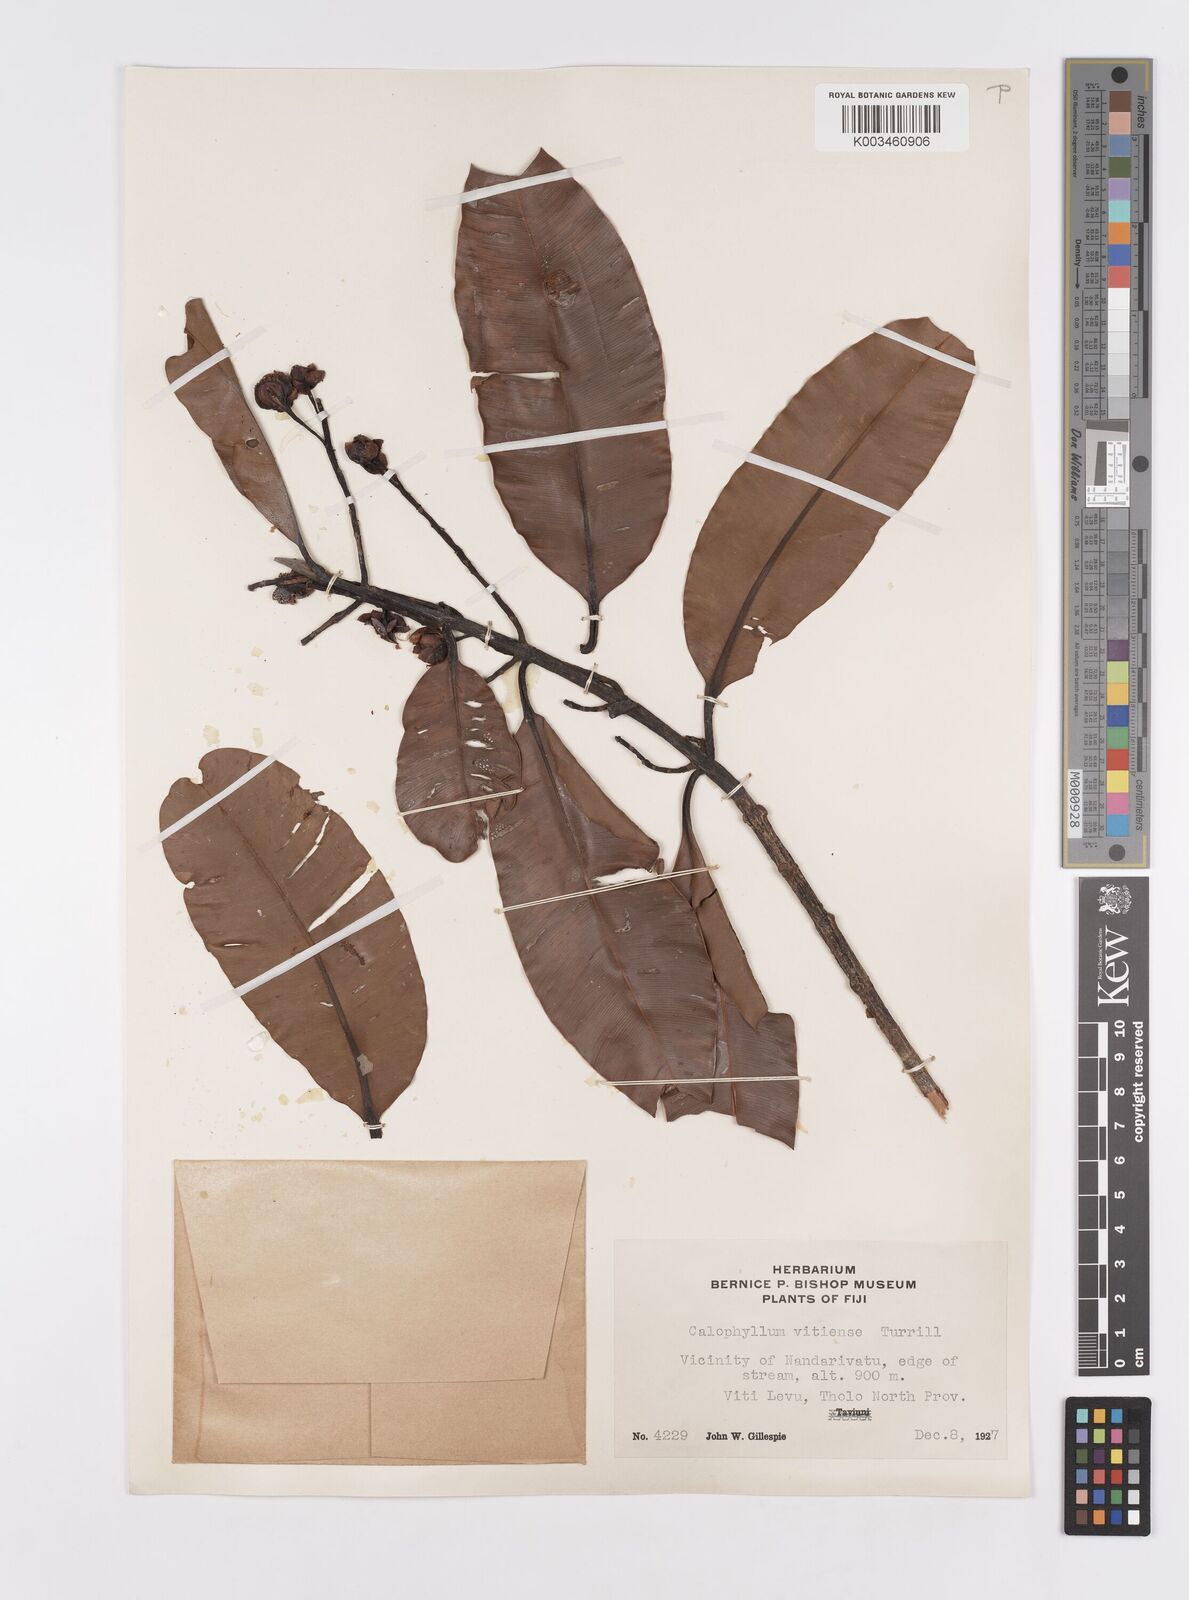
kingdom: Plantae
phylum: Tracheophyta
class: Magnoliopsida
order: Malpighiales
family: Calophyllaceae
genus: Calophyllum
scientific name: Calophyllum vitiense
